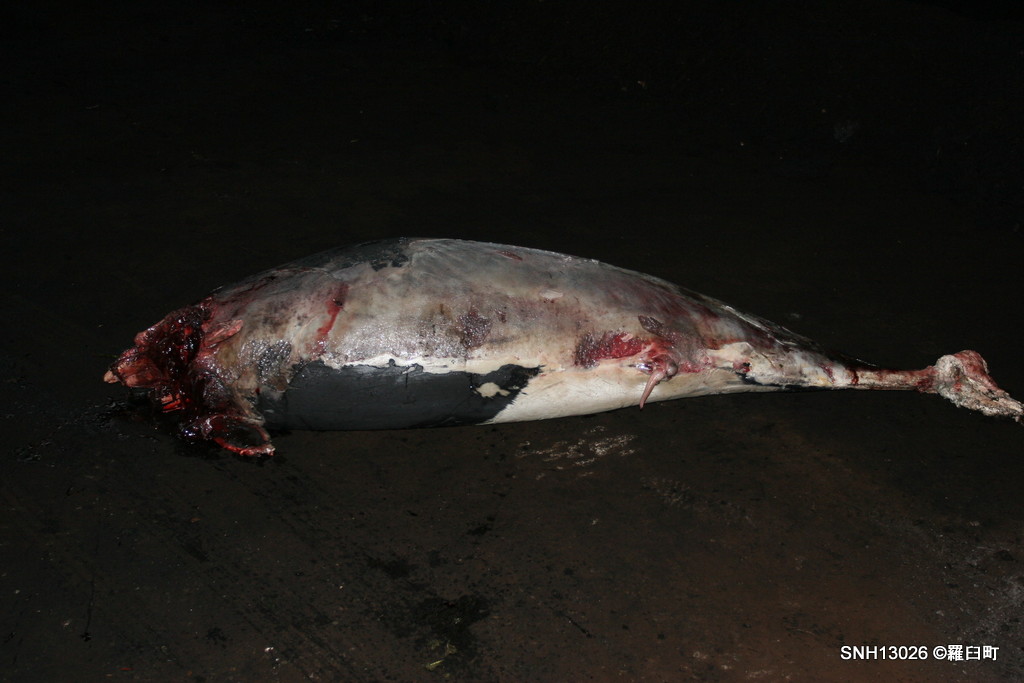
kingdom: Animalia
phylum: Chordata
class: Mammalia
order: Cetacea
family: Phocoenidae
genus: Phocoenoides
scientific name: Phocoenoides dalli
